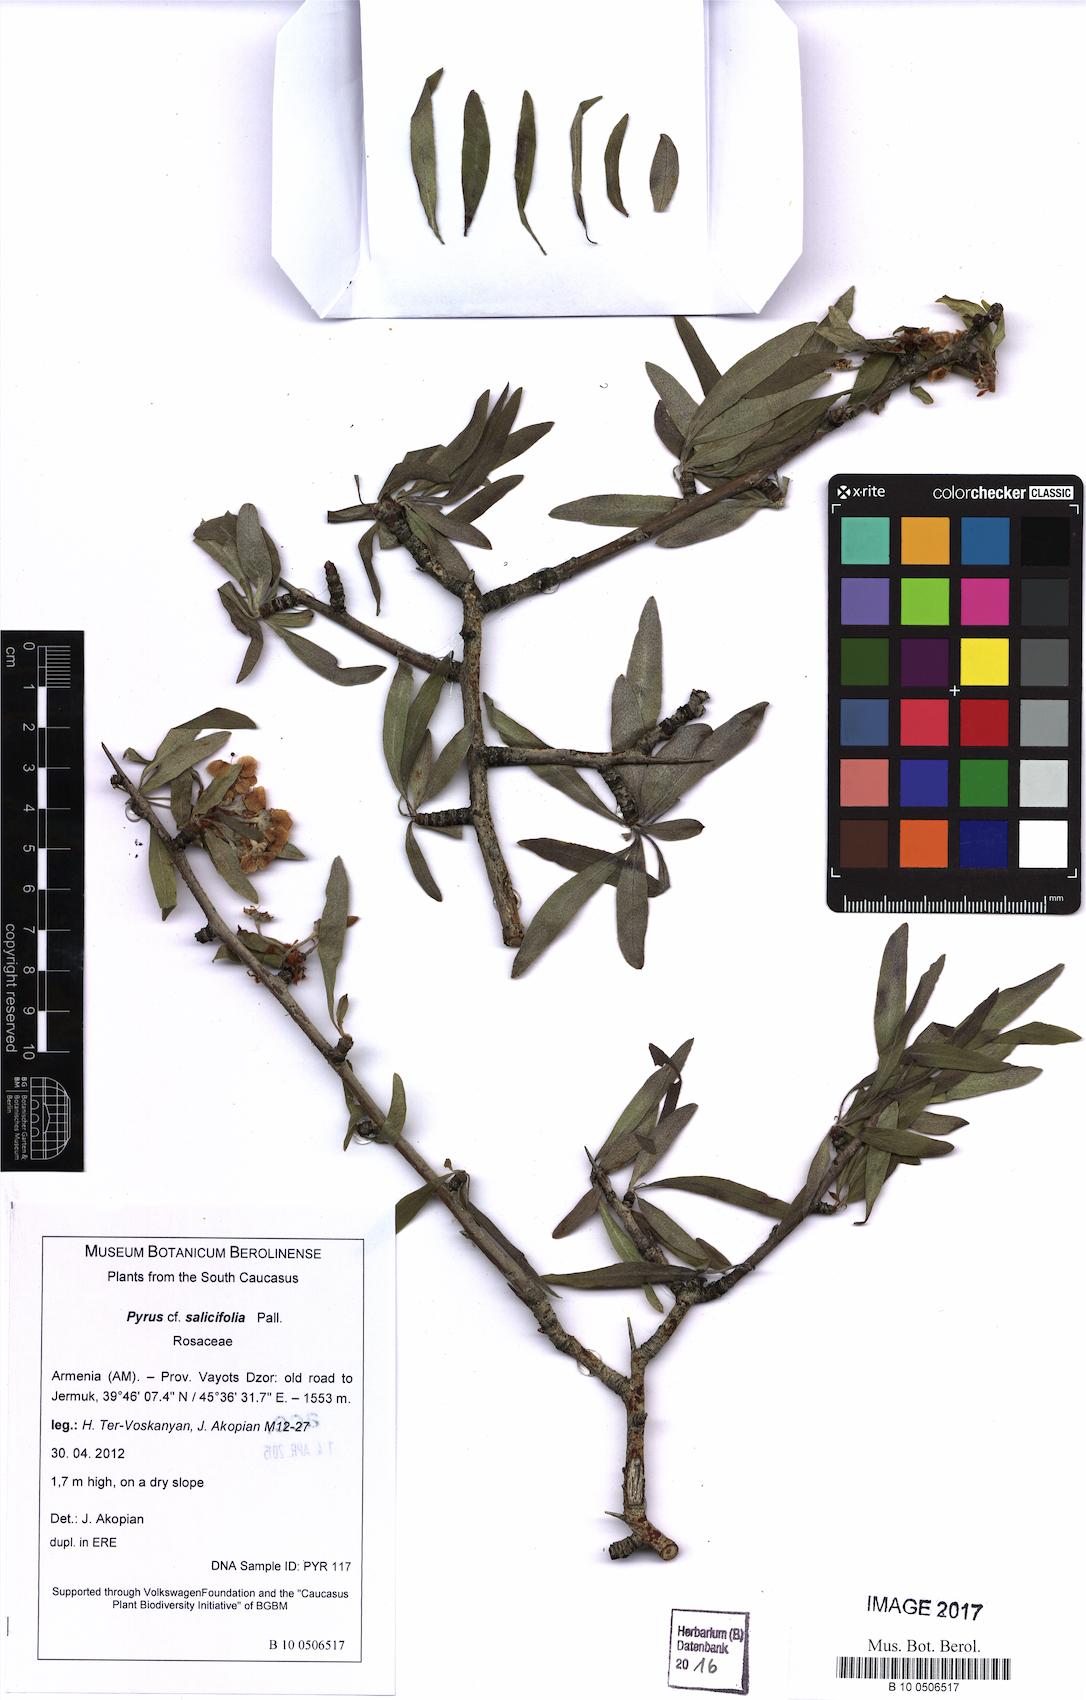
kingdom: Plantae
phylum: Tracheophyta
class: Magnoliopsida
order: Rosales
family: Rosaceae
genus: Pyrus
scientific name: Pyrus salicifolia
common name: Willow-leaved pear
